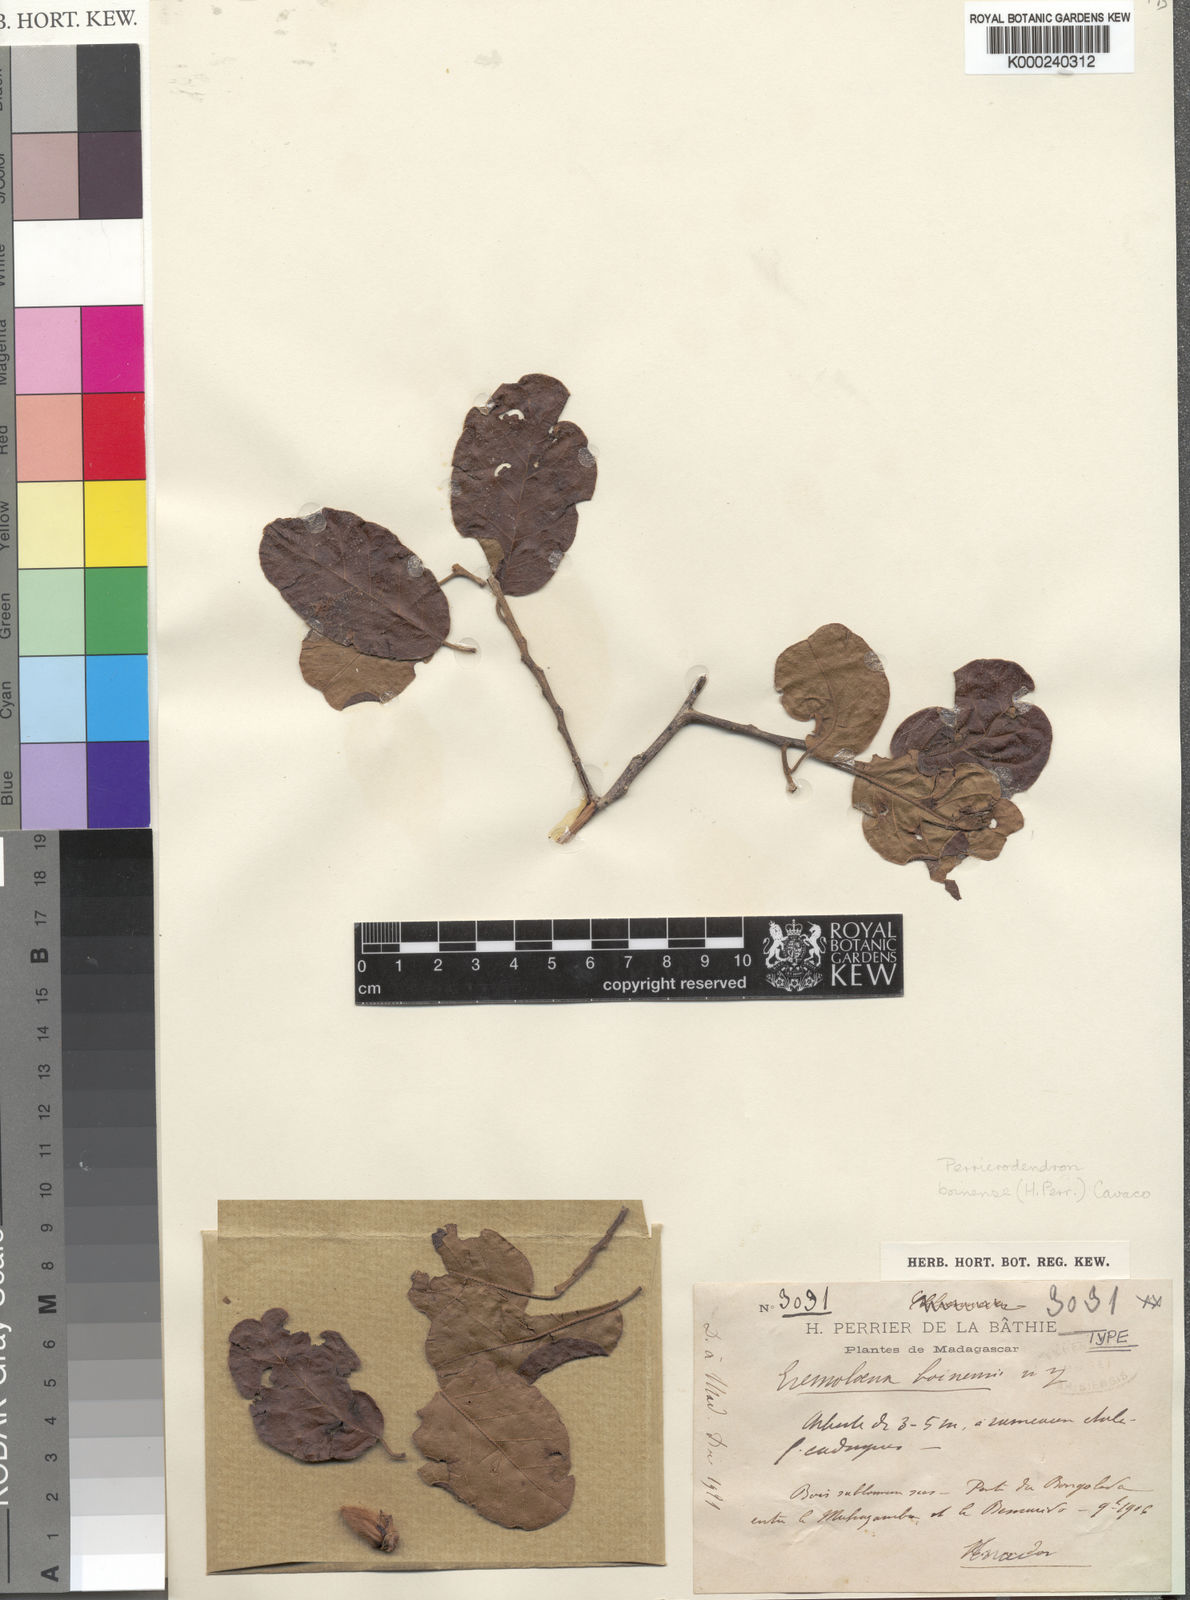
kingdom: Plantae
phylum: Tracheophyta
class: Magnoliopsida
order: Malvales
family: Sarcolaenaceae
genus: Perrierodendron
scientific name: Perrierodendron boinense
